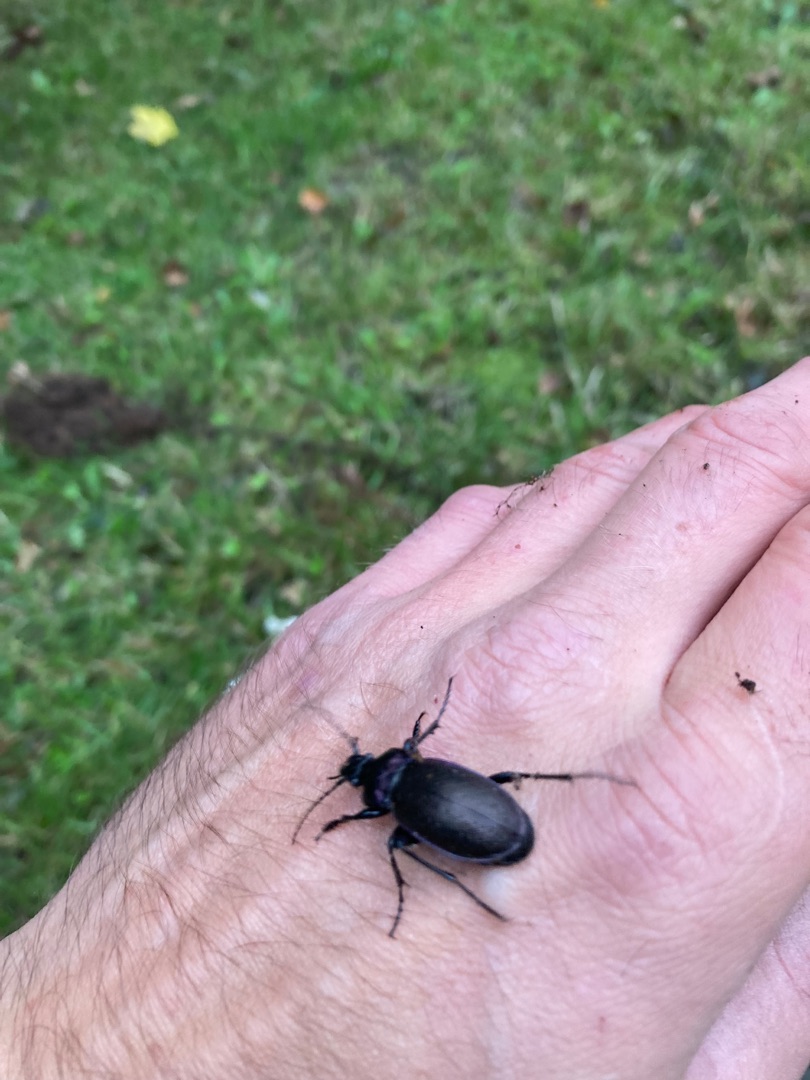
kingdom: Animalia
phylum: Arthropoda
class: Insecta
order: Coleoptera
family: Carabidae
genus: Carabus
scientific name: Carabus nemoralis
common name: Kratløber
